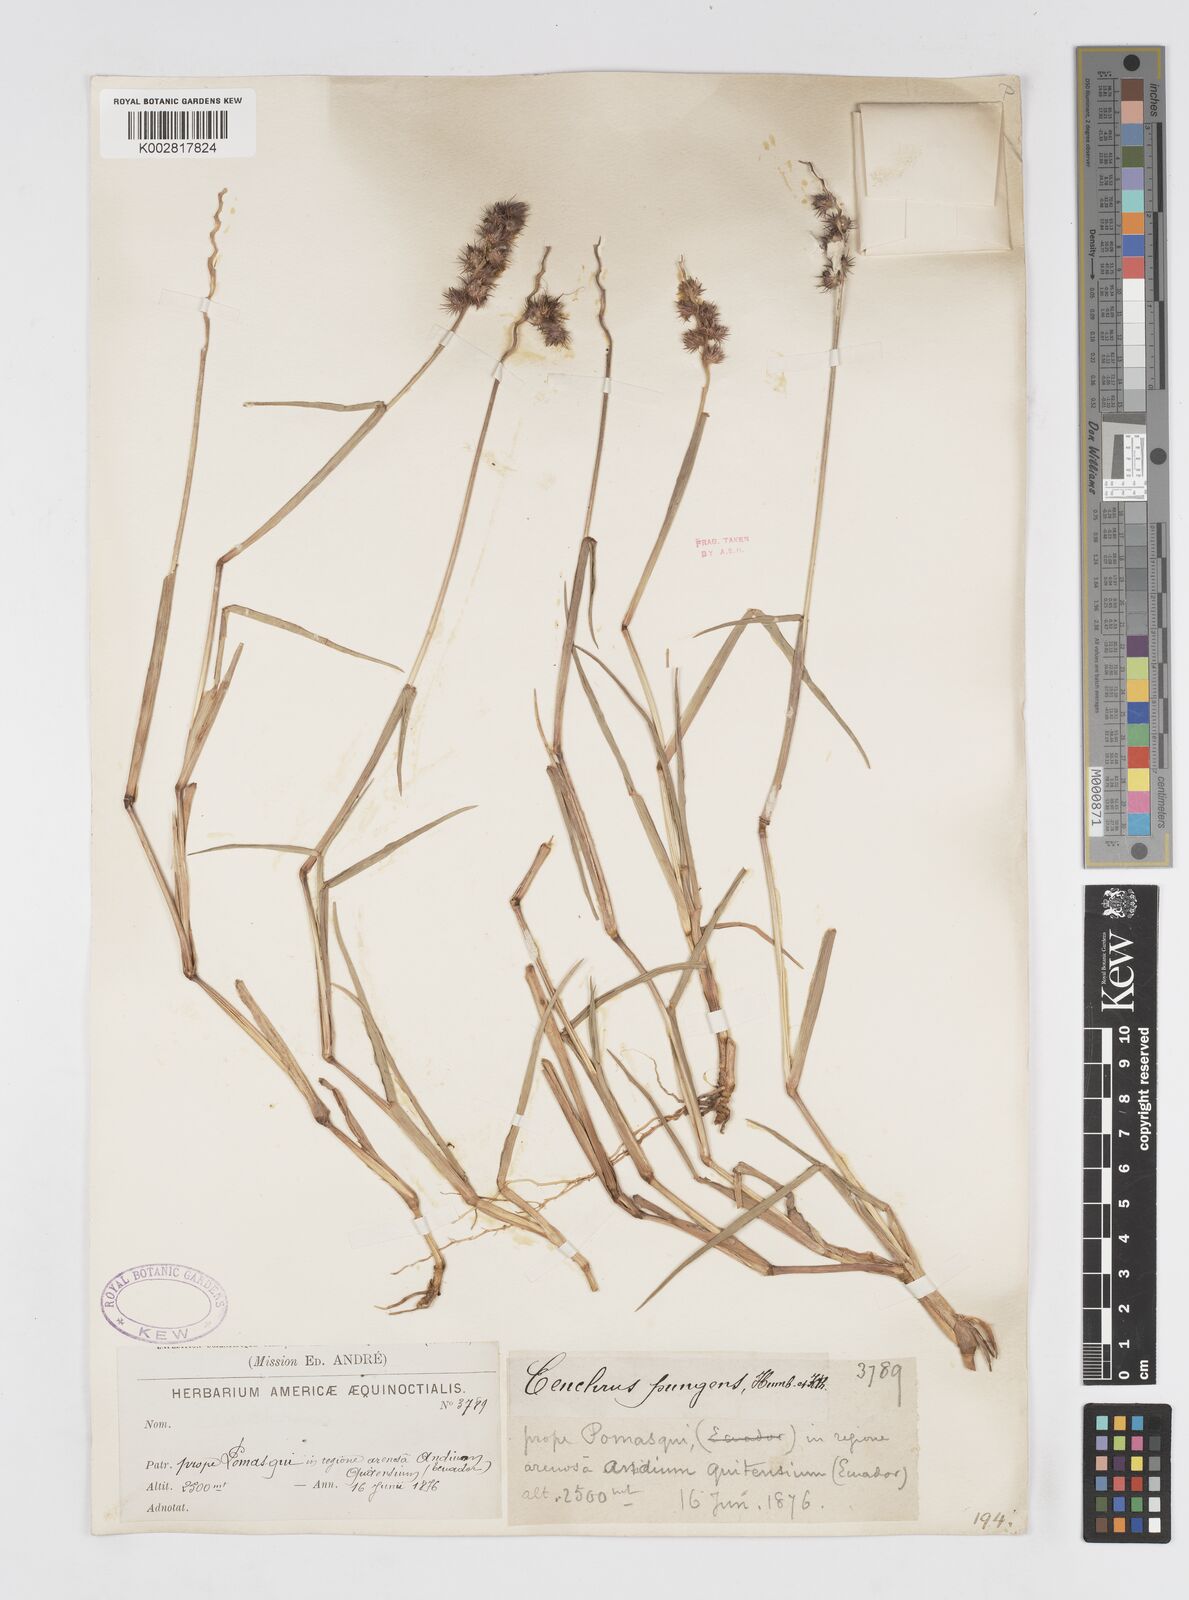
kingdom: Plantae
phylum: Tracheophyta
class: Liliopsida
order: Poales
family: Poaceae
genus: Cenchrus
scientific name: Cenchrus
